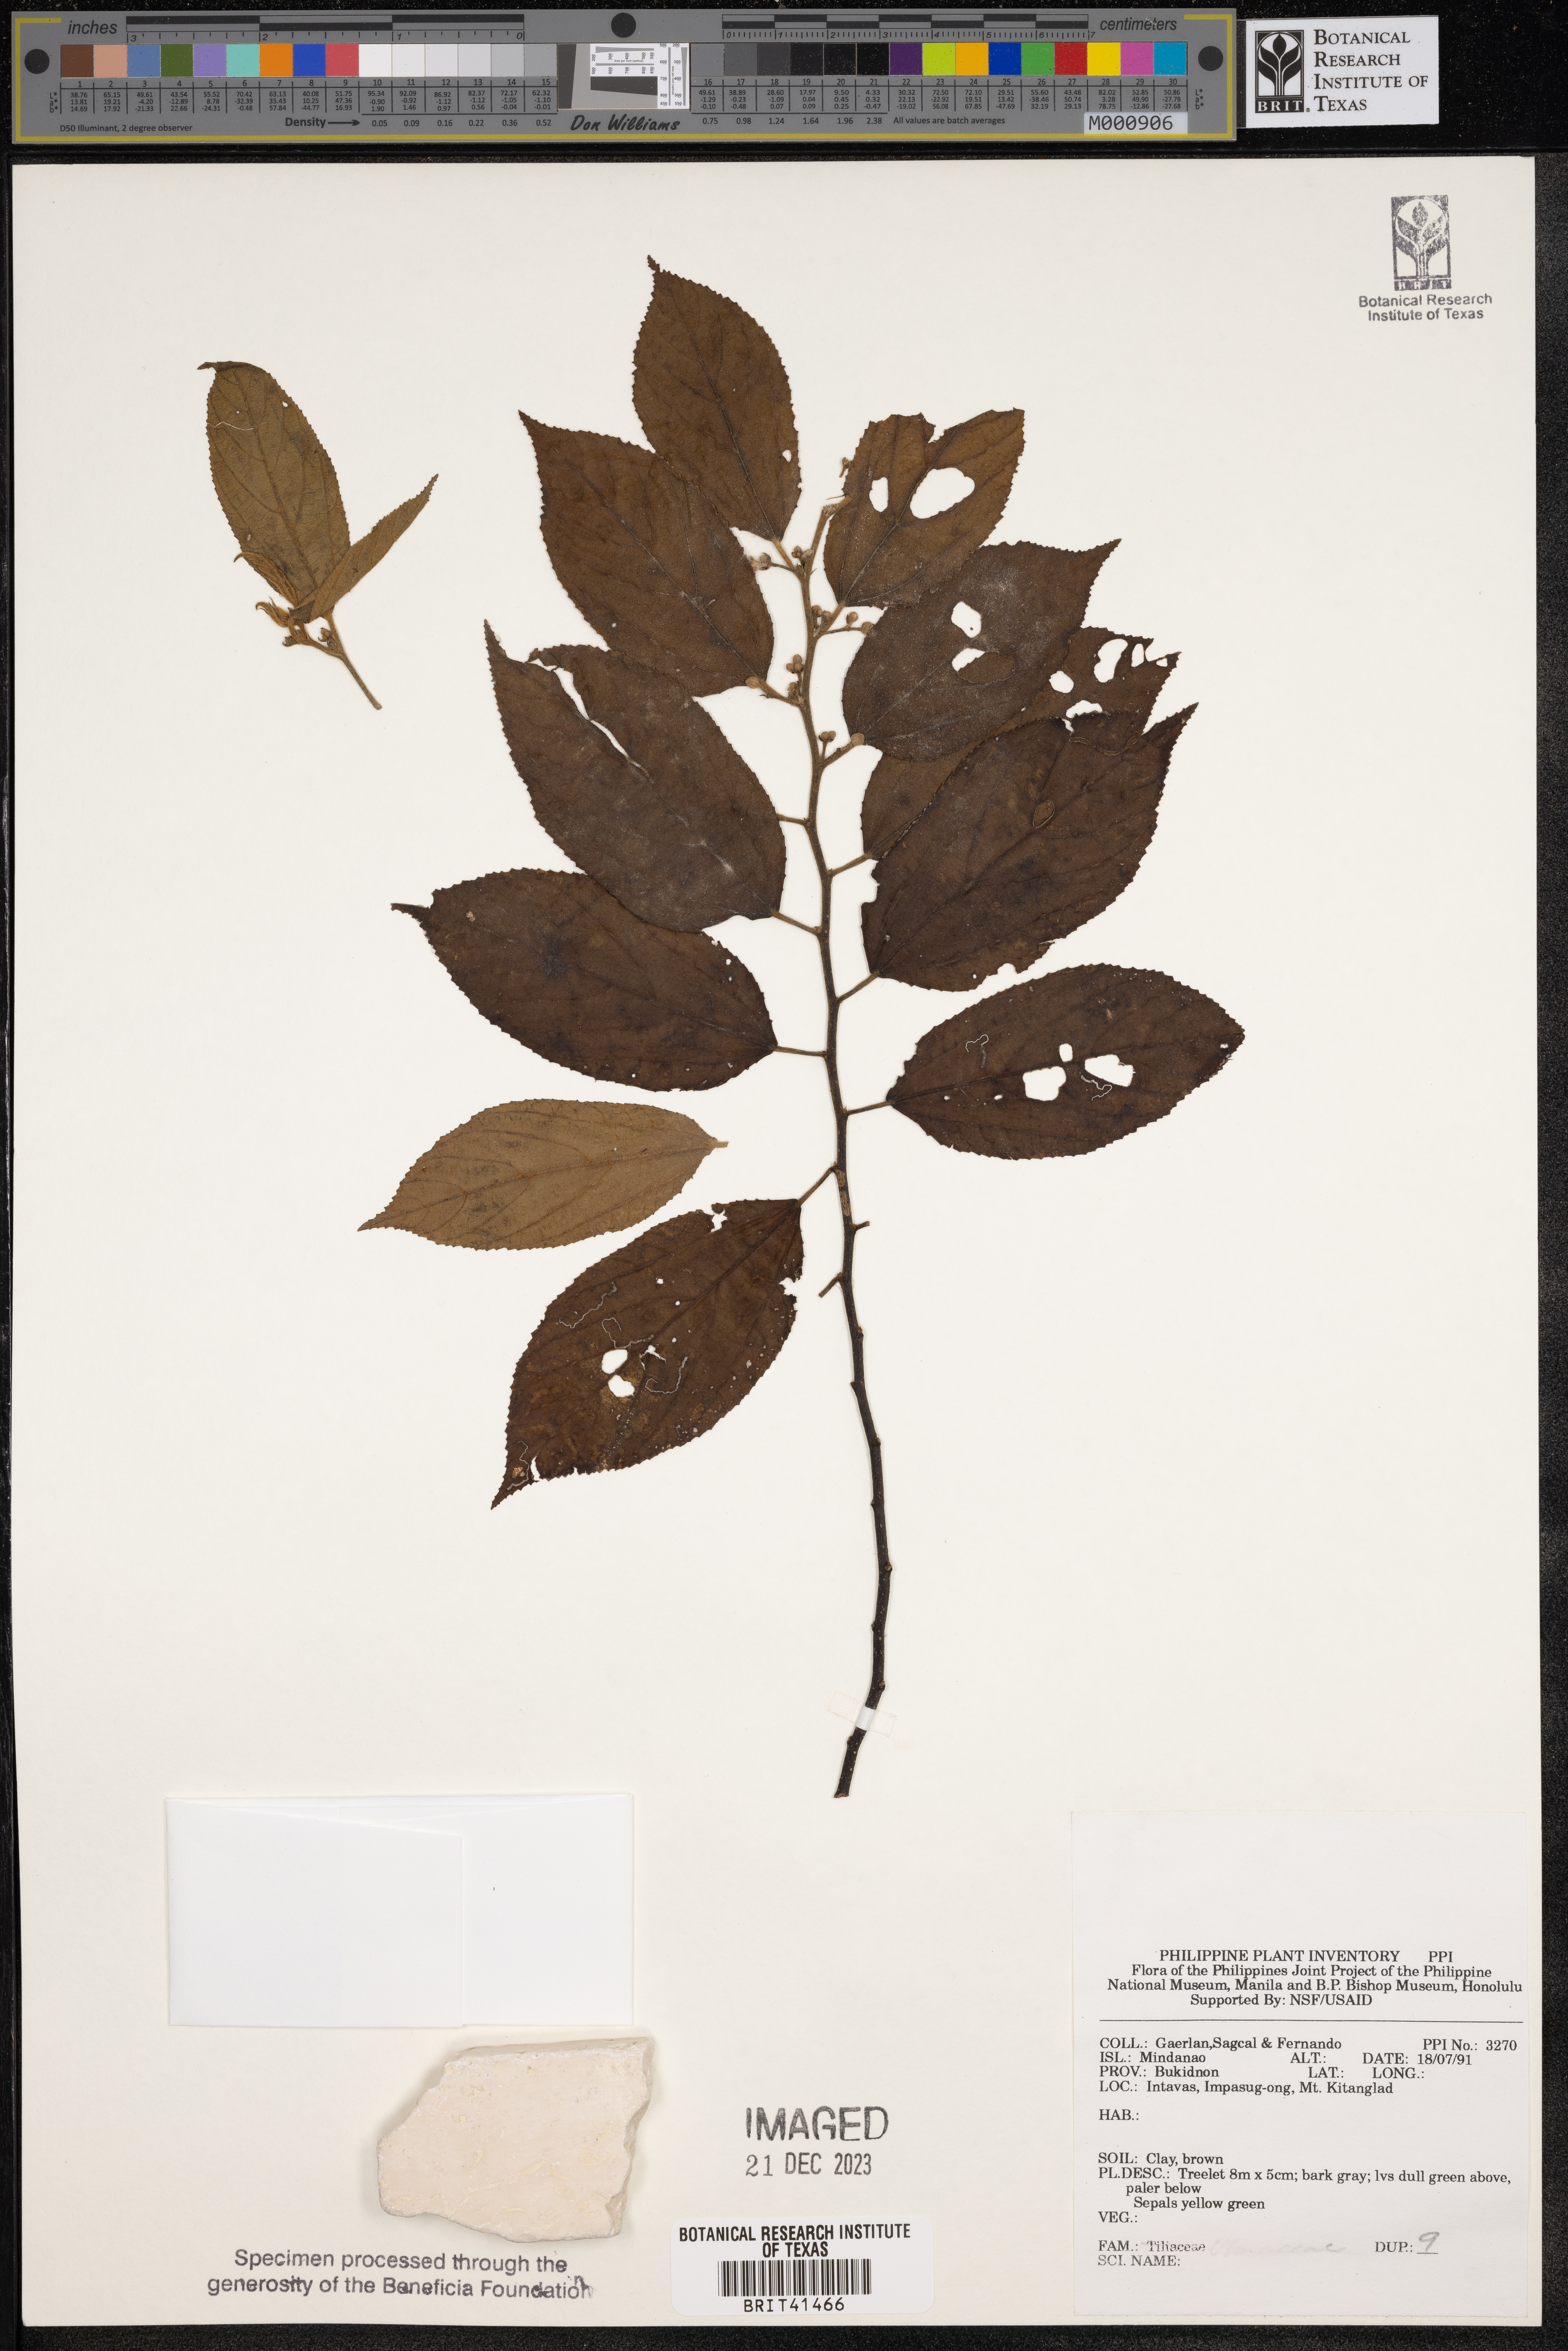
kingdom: Plantae
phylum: Tracheophyta
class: Magnoliopsida
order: Malvales
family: Tiliaceae
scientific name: Tiliaceae
